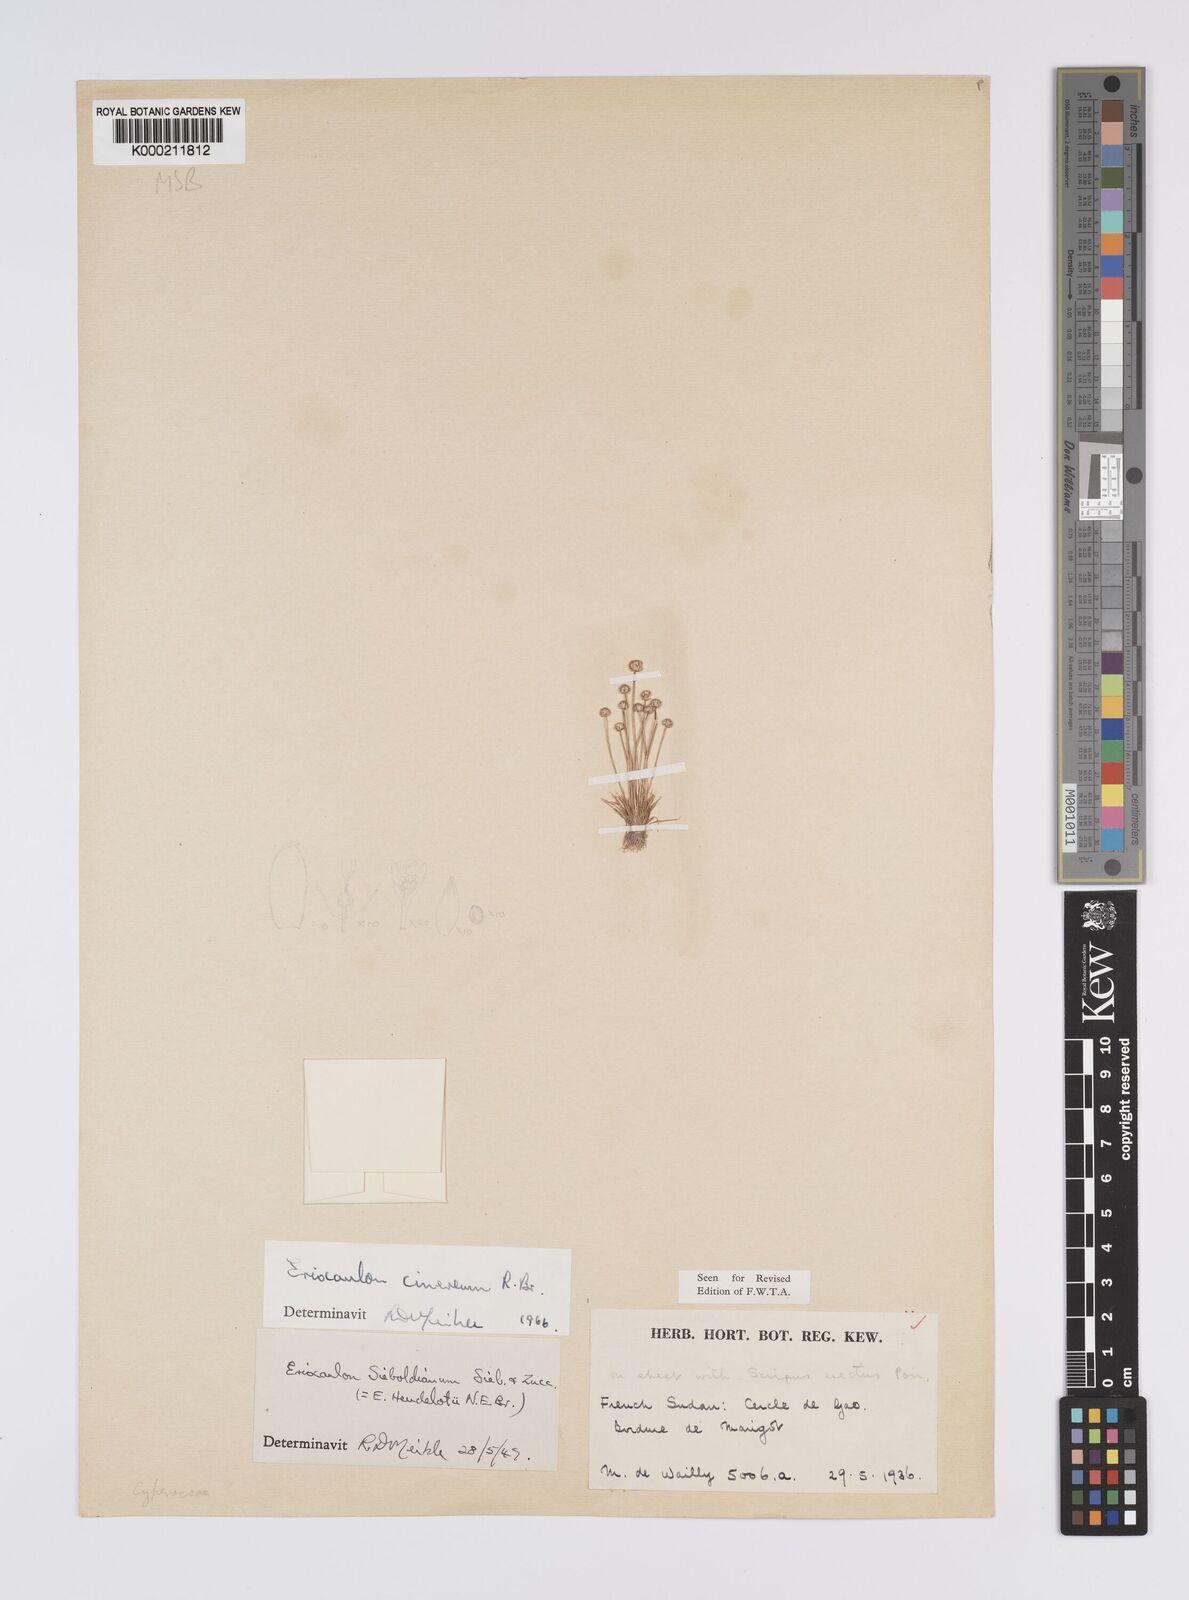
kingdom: Plantae
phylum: Tracheophyta
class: Liliopsida
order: Poales
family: Eriocaulaceae
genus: Eriocaulon
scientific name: Eriocaulon cinereum
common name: Ashy pipewort
